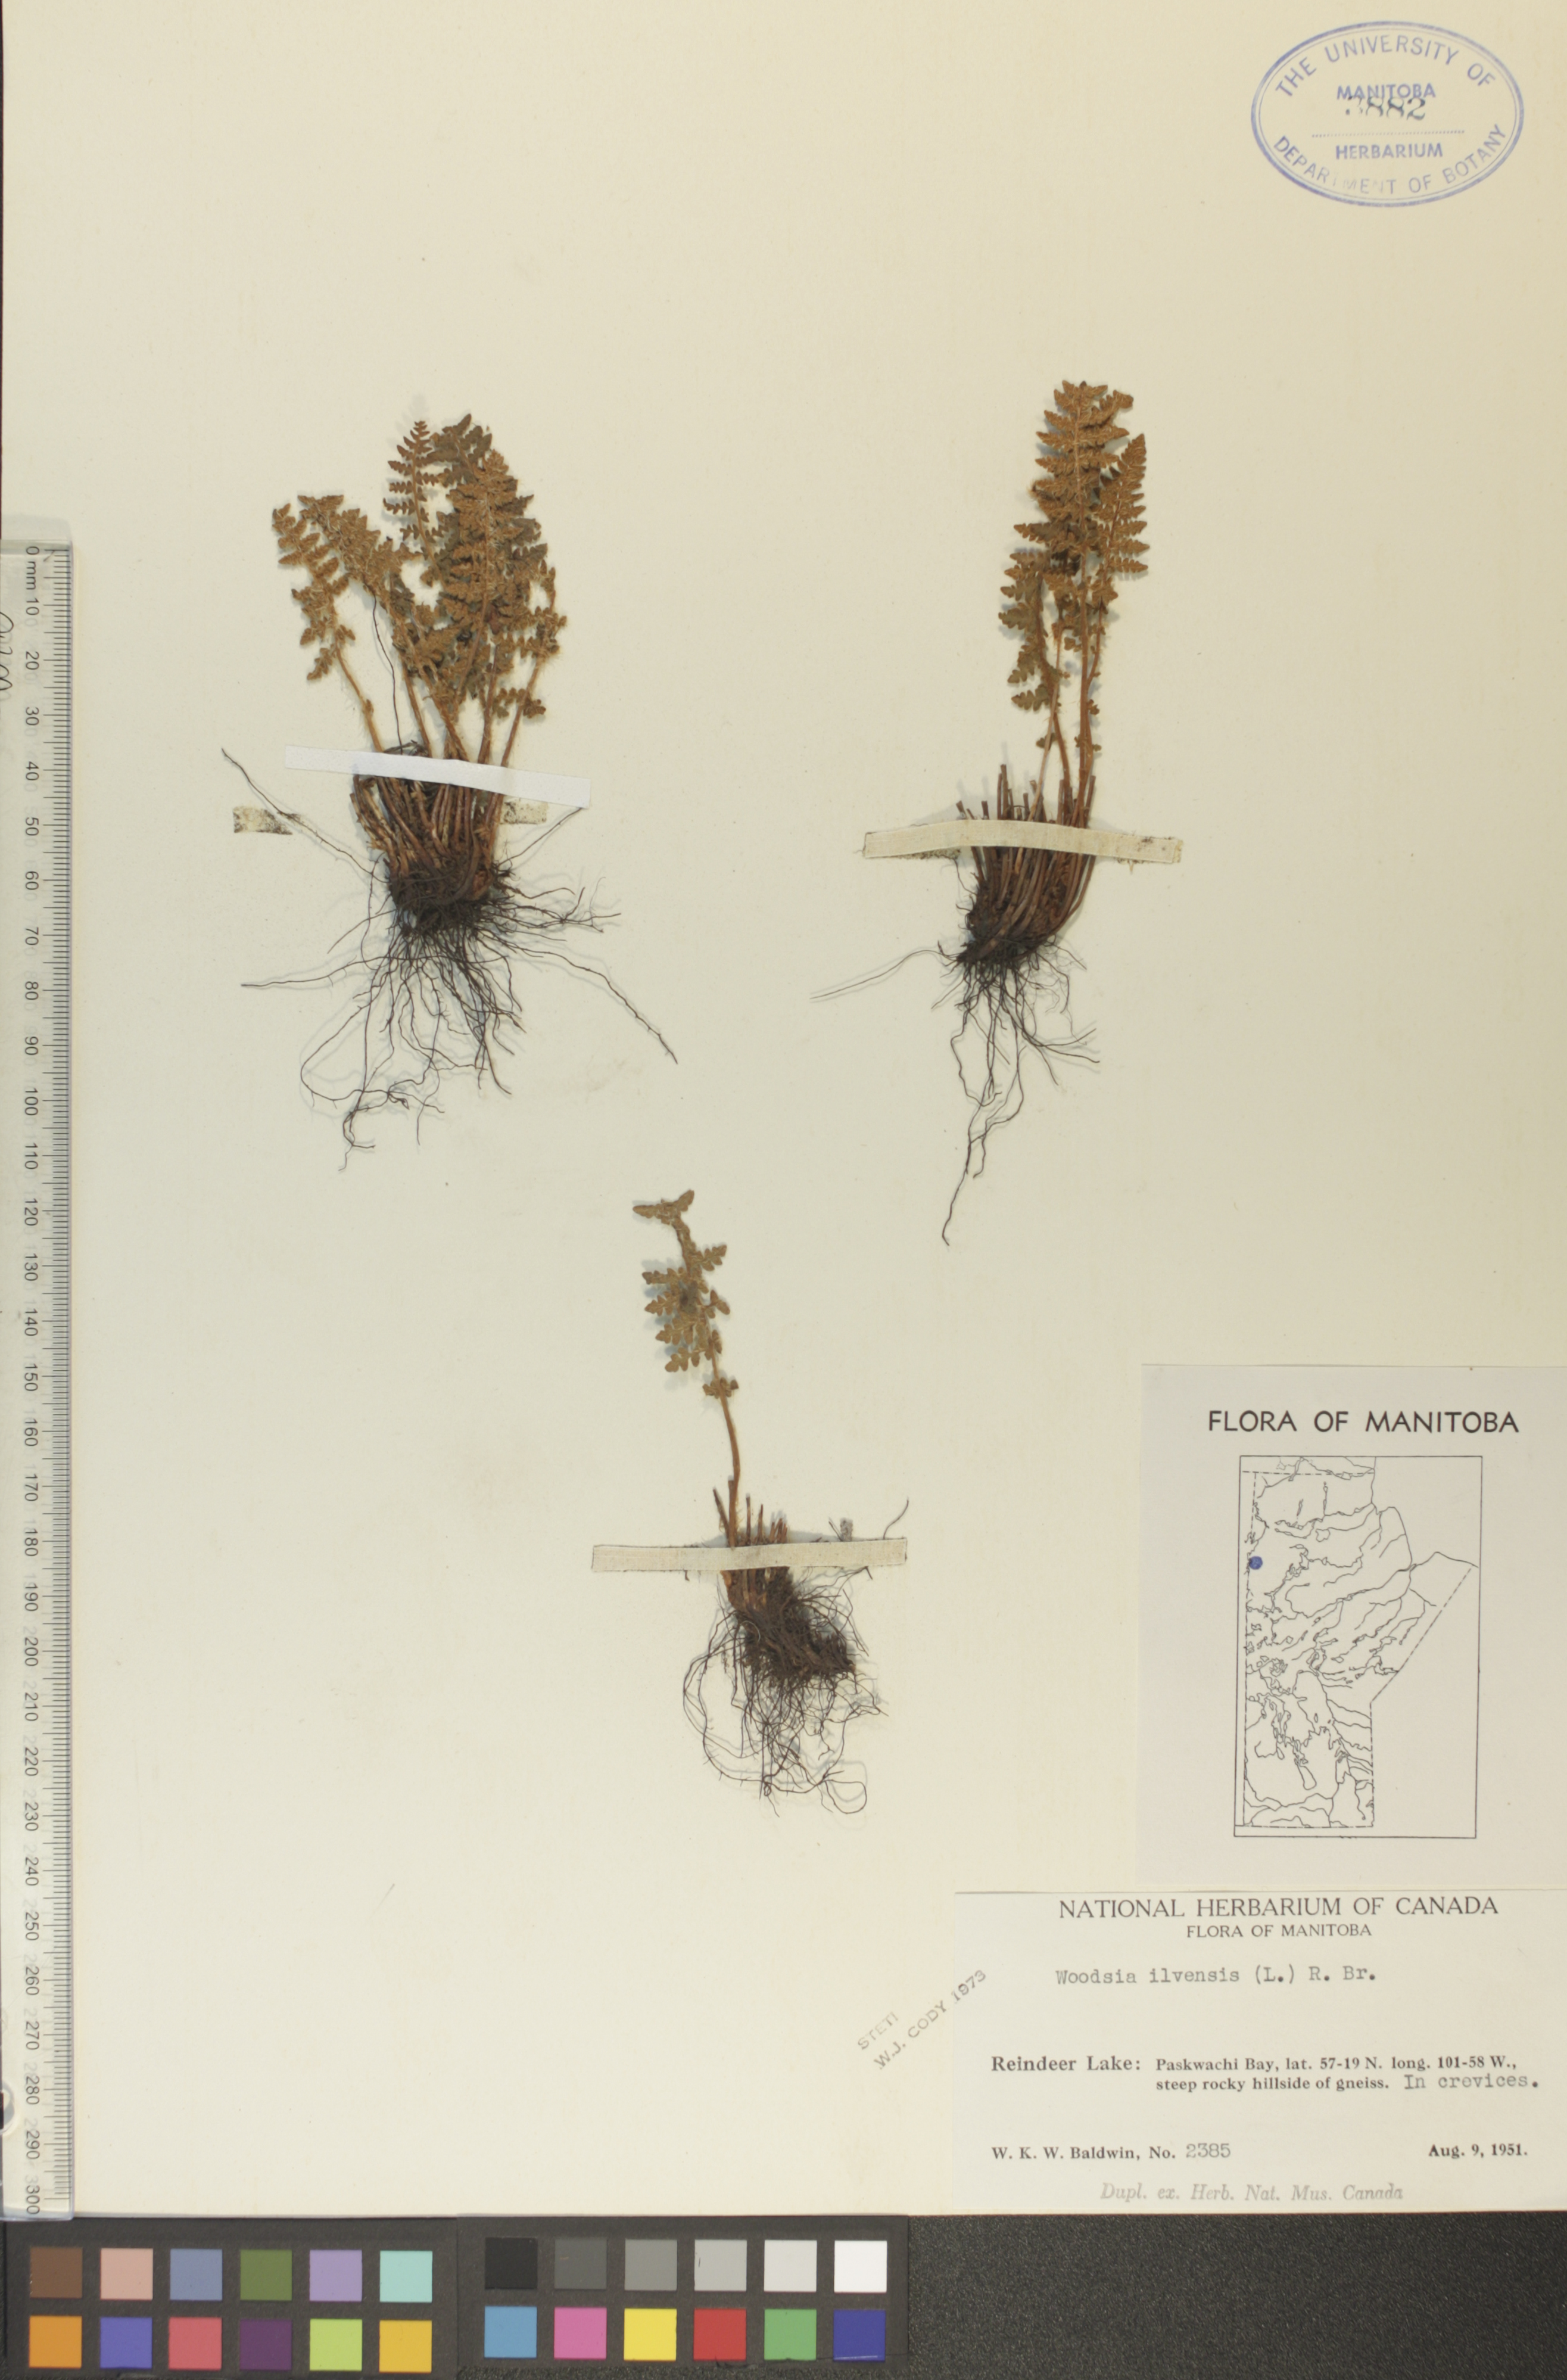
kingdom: Plantae
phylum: Tracheophyta
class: Polypodiopsida
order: Polypodiales
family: Woodsiaceae
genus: Woodsia
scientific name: Woodsia ilvensis
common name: Fragrant woodsia
